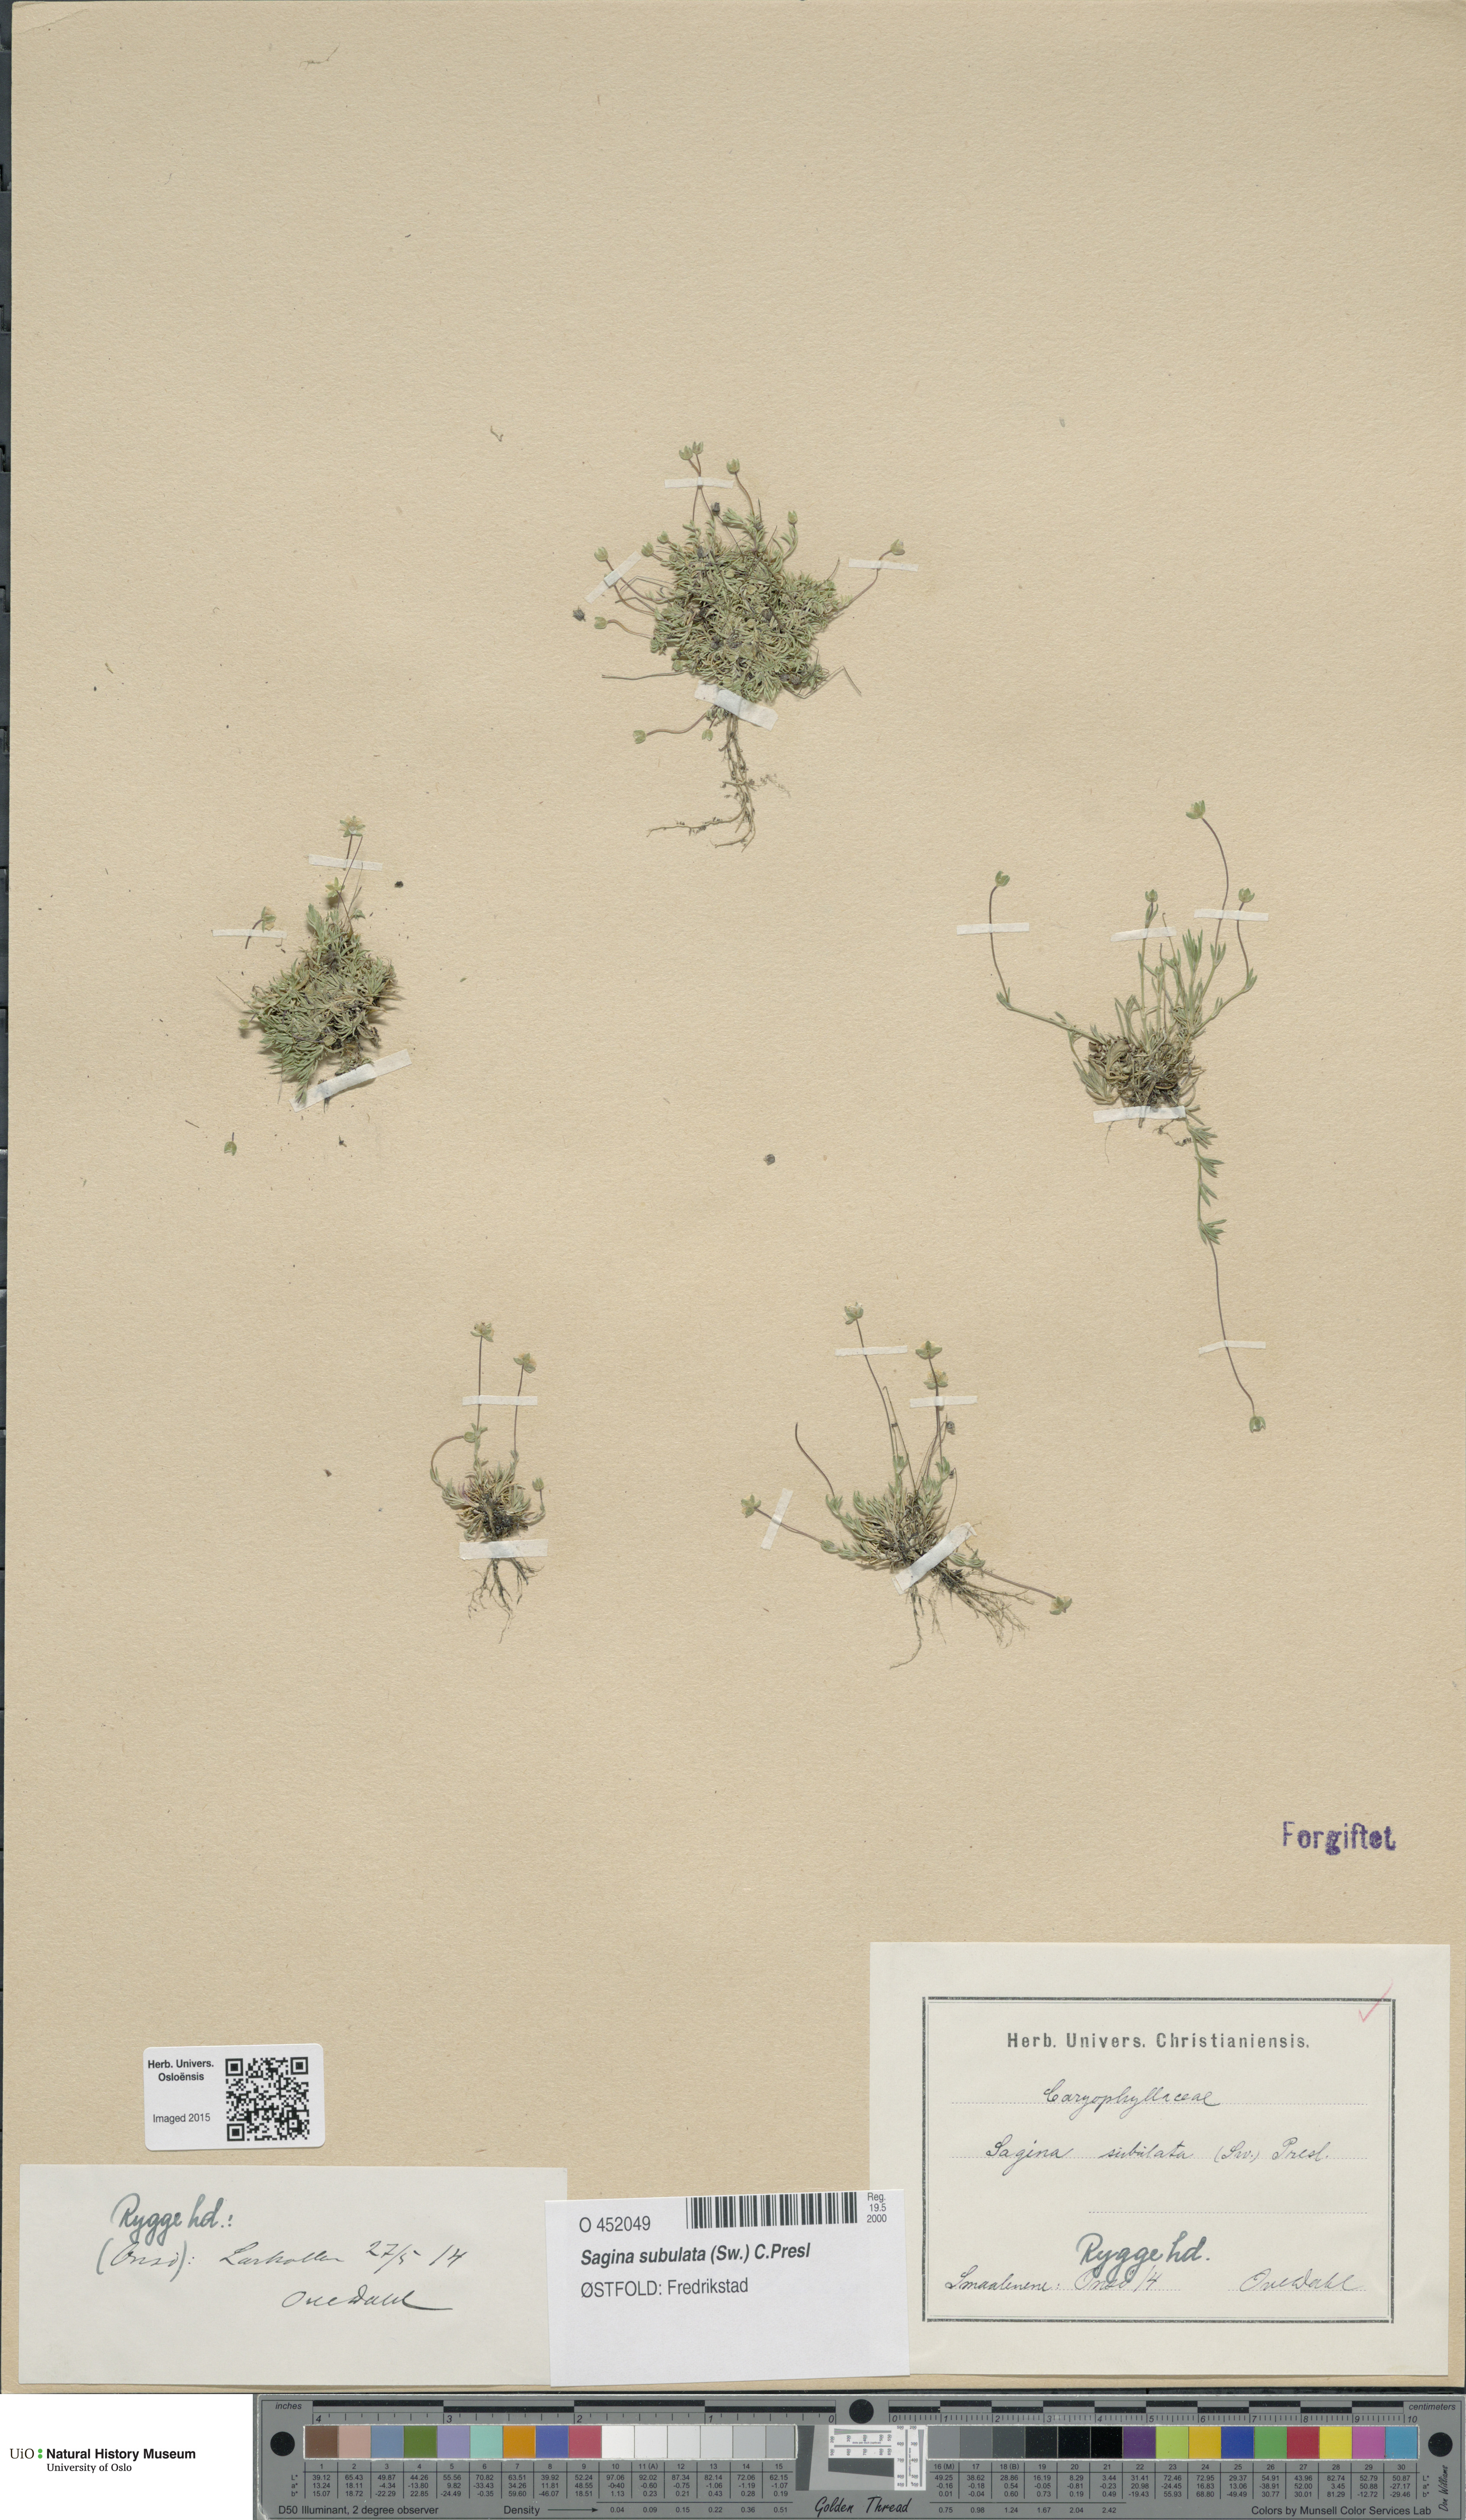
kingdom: Plantae
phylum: Tracheophyta
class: Magnoliopsida
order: Caryophyllales
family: Caryophyllaceae
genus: Sagina
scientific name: Sagina alexandrae
